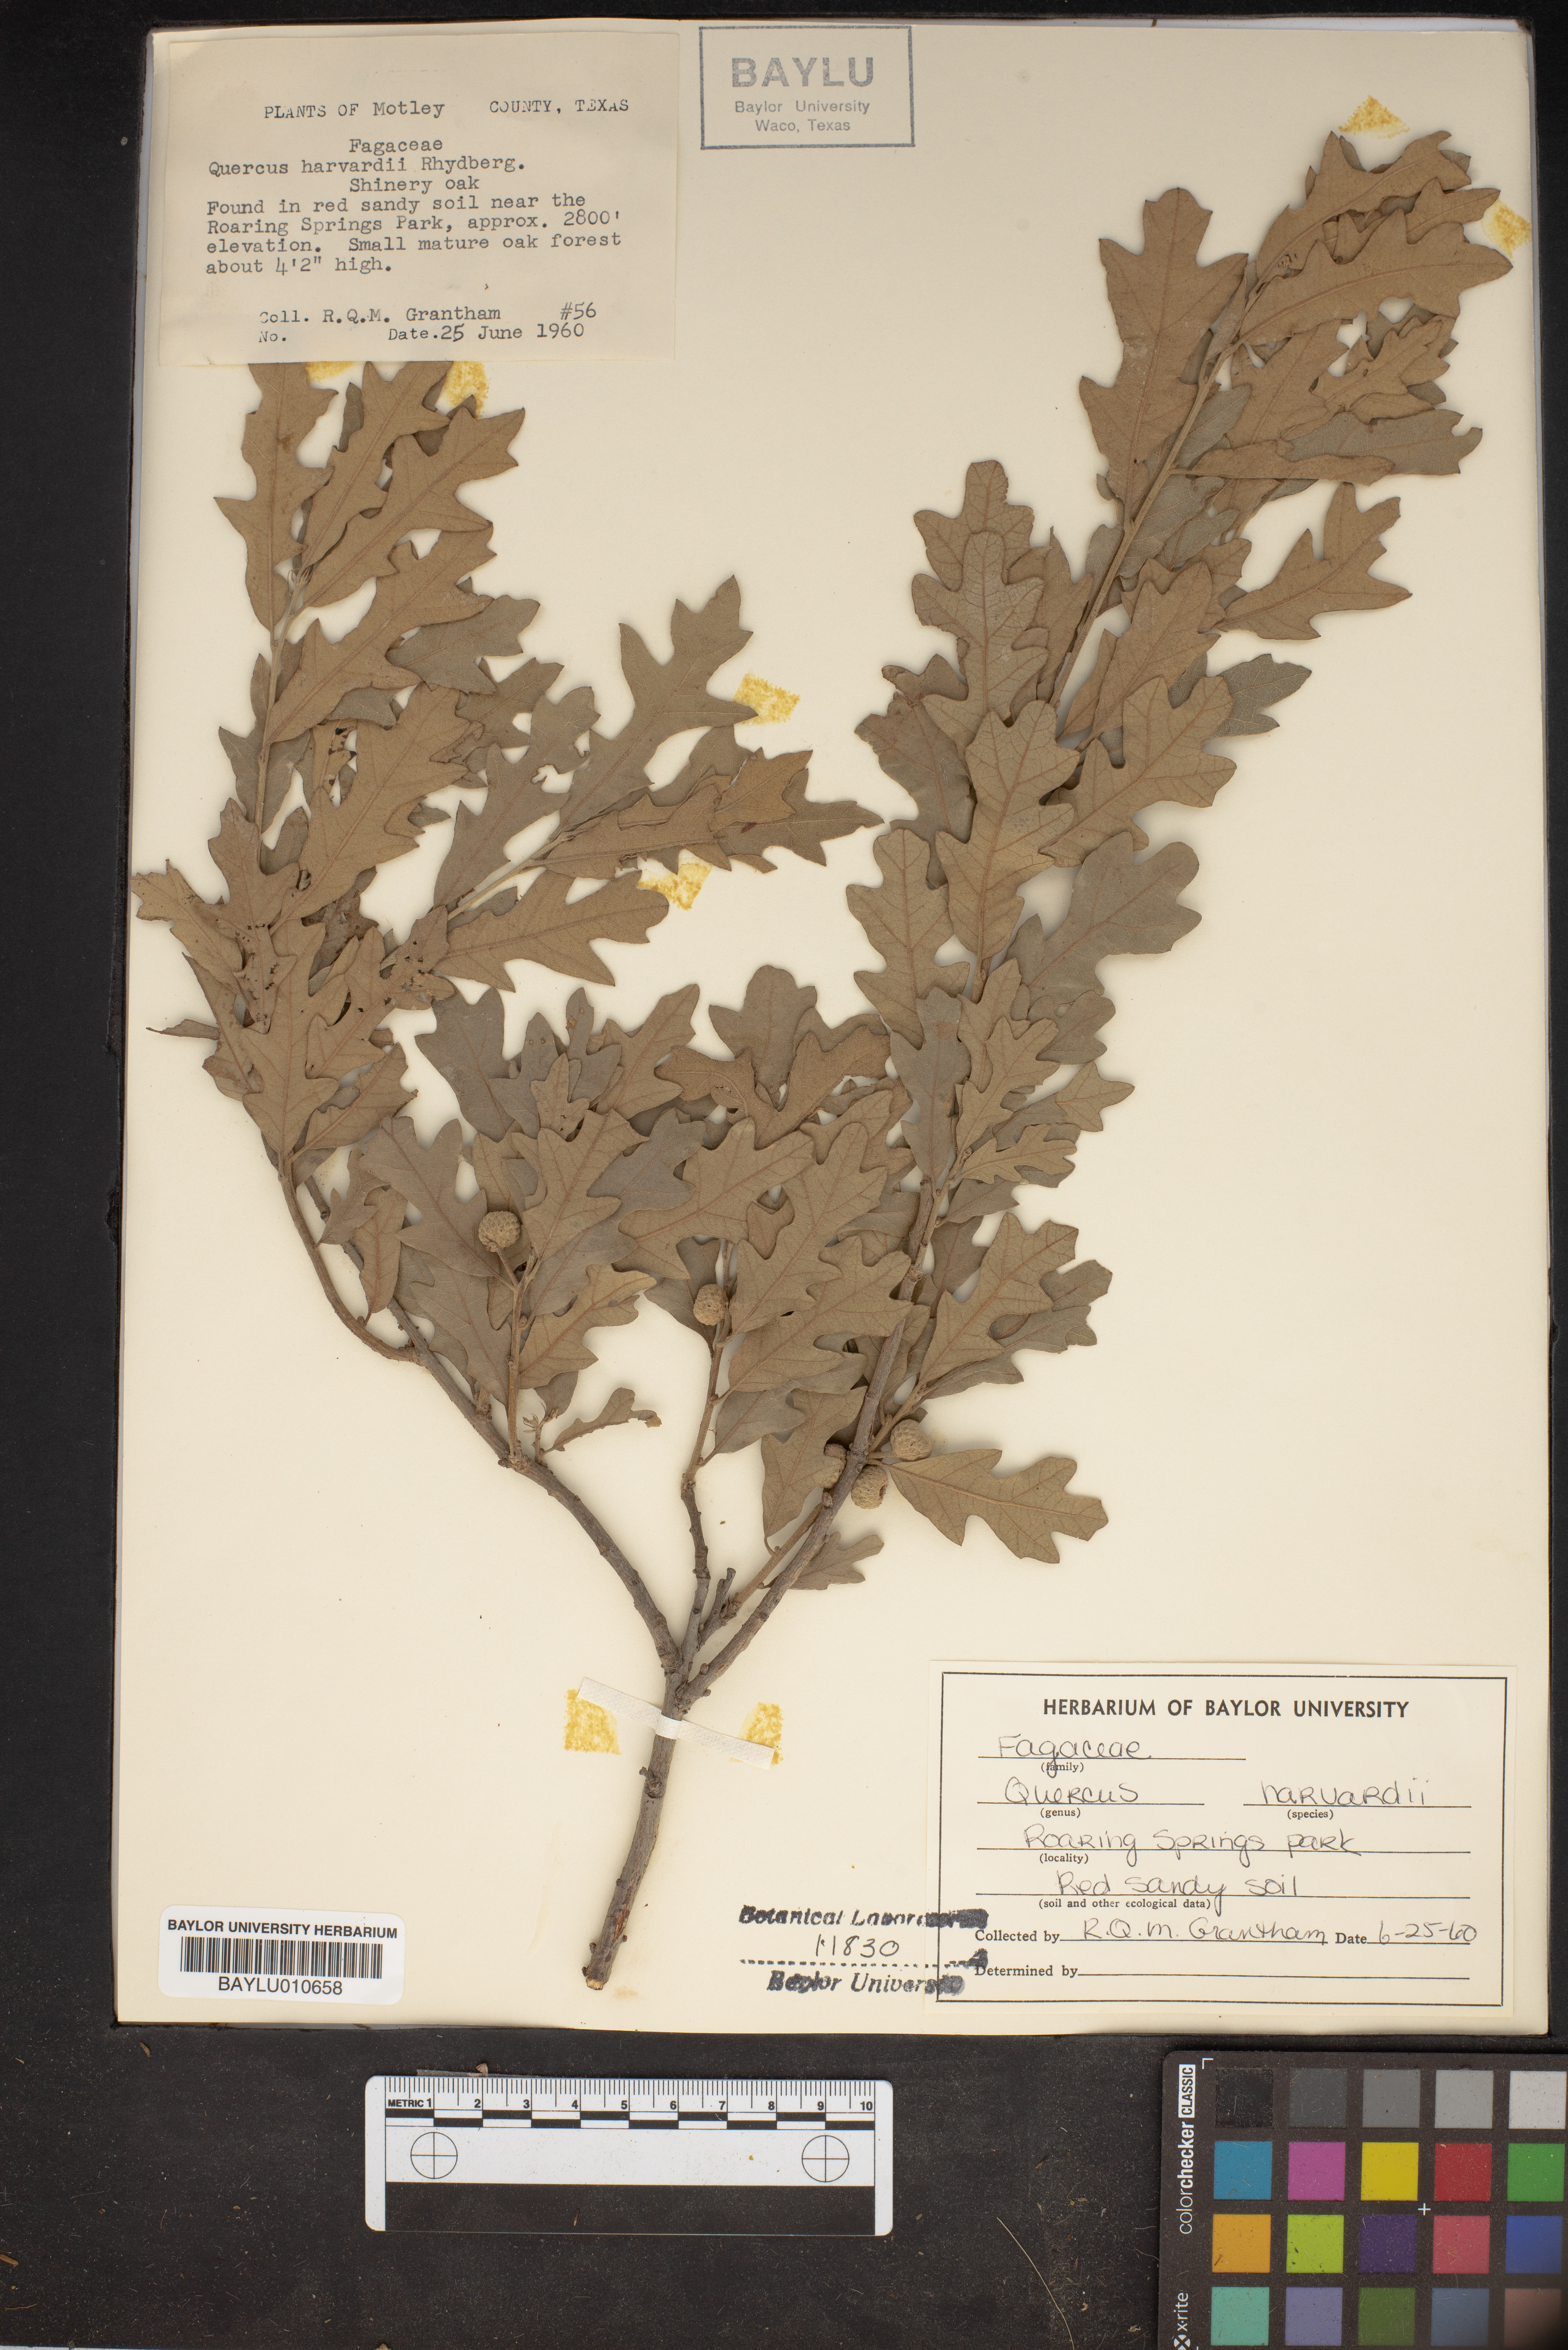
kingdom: Plantae
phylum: Tracheophyta
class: Magnoliopsida
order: Fagales
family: Fagaceae
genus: Quercus
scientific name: Quercus havardii
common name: Shinnery oak
